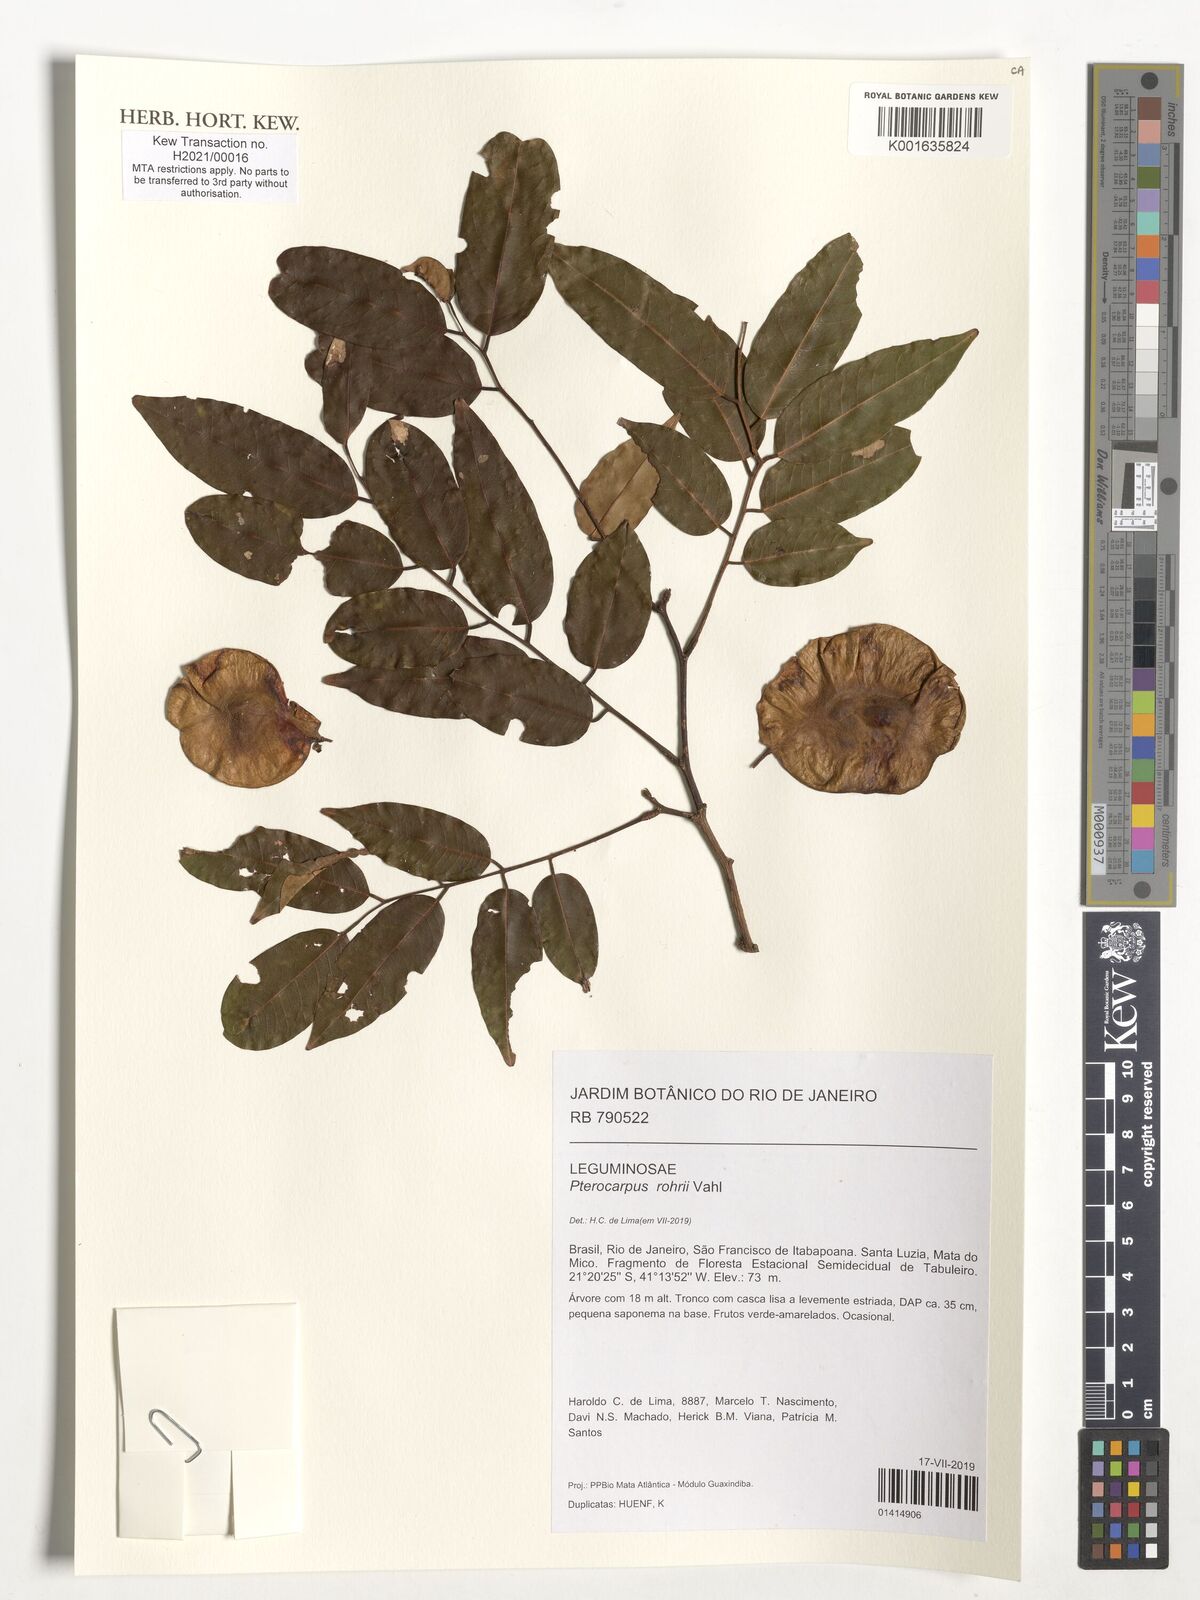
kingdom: Plantae
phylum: Tracheophyta
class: Magnoliopsida
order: Fabales
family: Fabaceae
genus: Pterocarpus
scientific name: Pterocarpus rohrii
